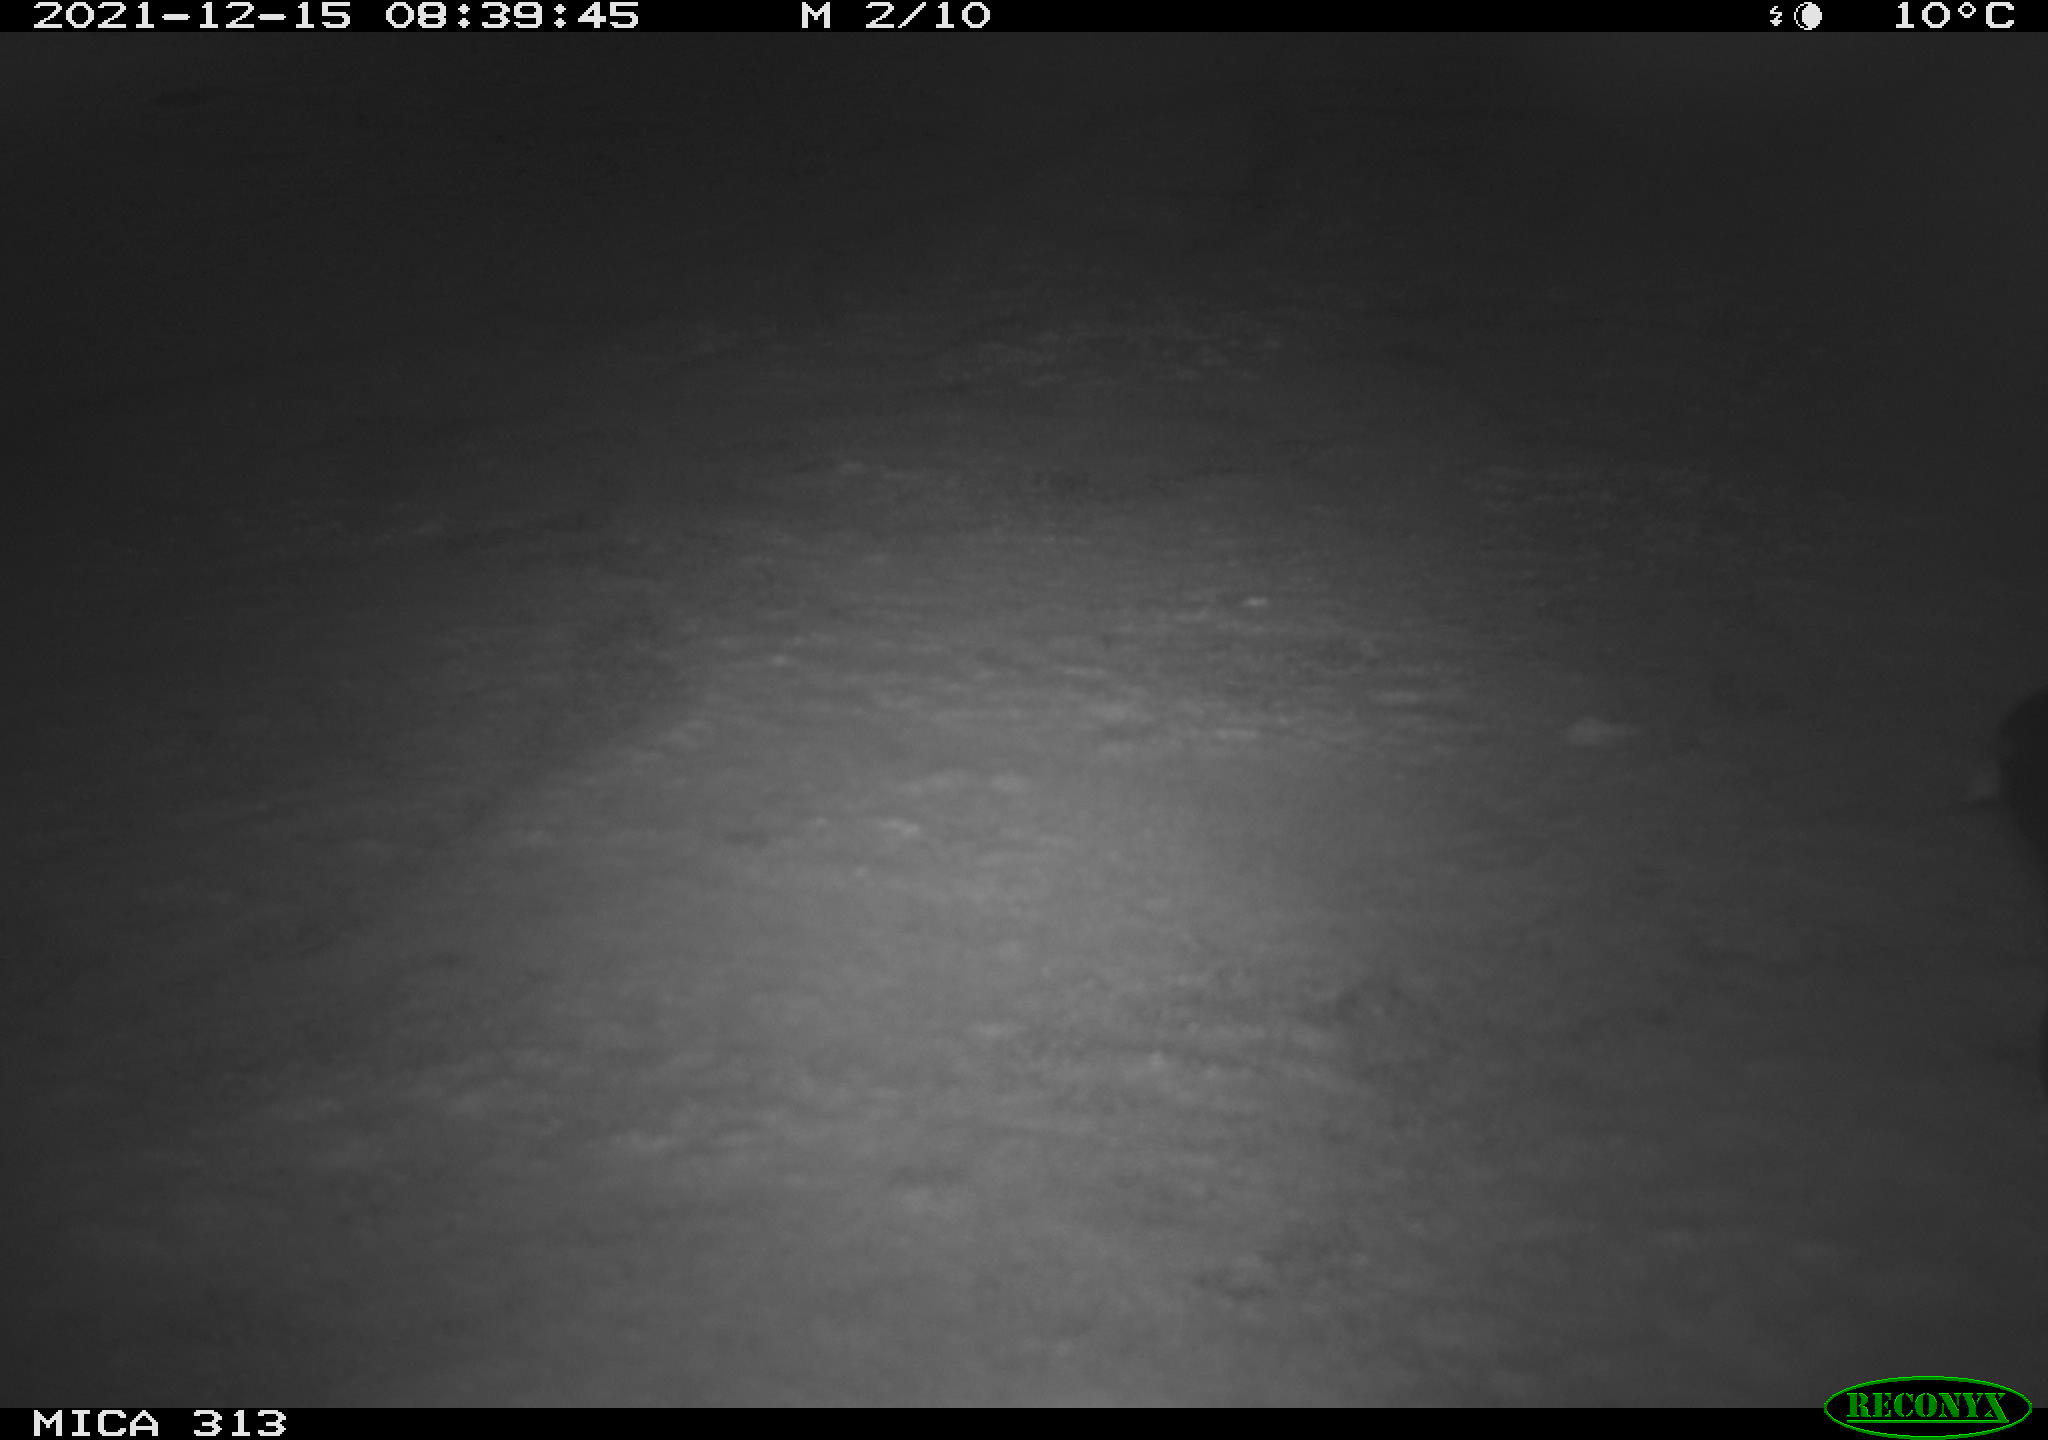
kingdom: Animalia
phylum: Chordata
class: Aves
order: Gruiformes
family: Rallidae
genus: Gallinula
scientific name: Gallinula chloropus
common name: Common moorhen
